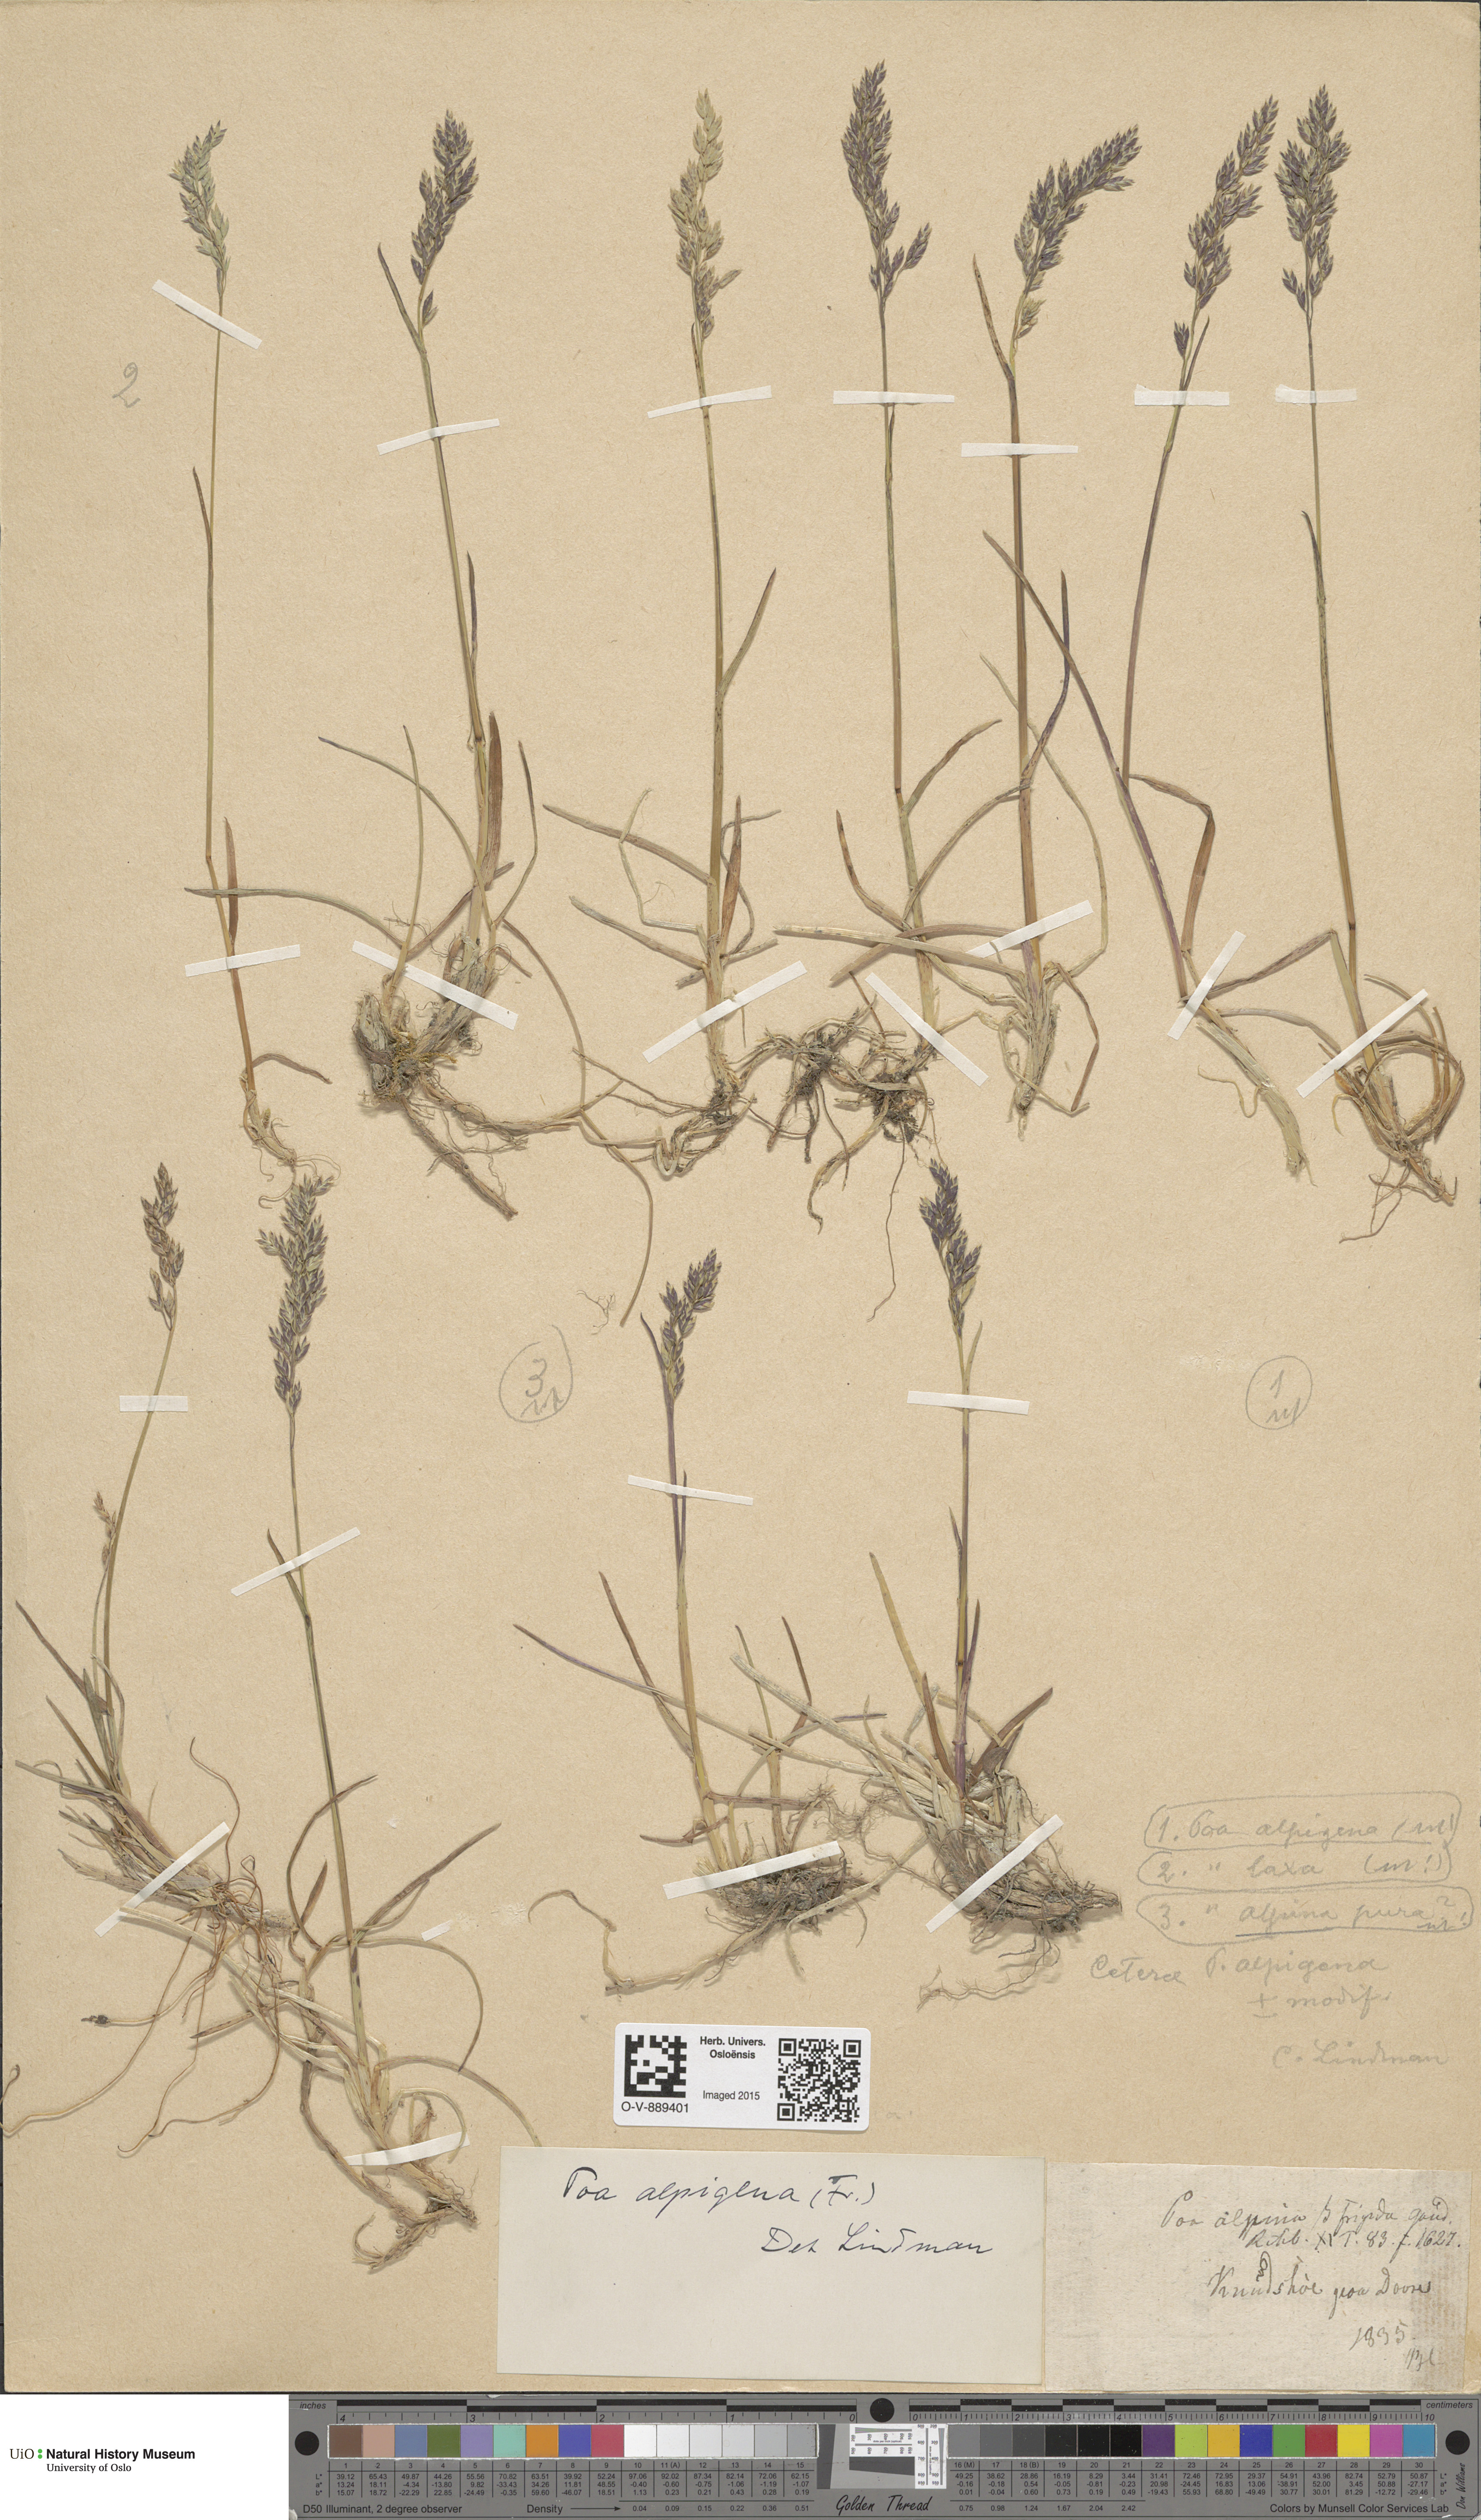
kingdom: Plantae
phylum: Tracheophyta
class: Liliopsida
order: Poales
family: Poaceae
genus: Poa
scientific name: Poa alpigena
